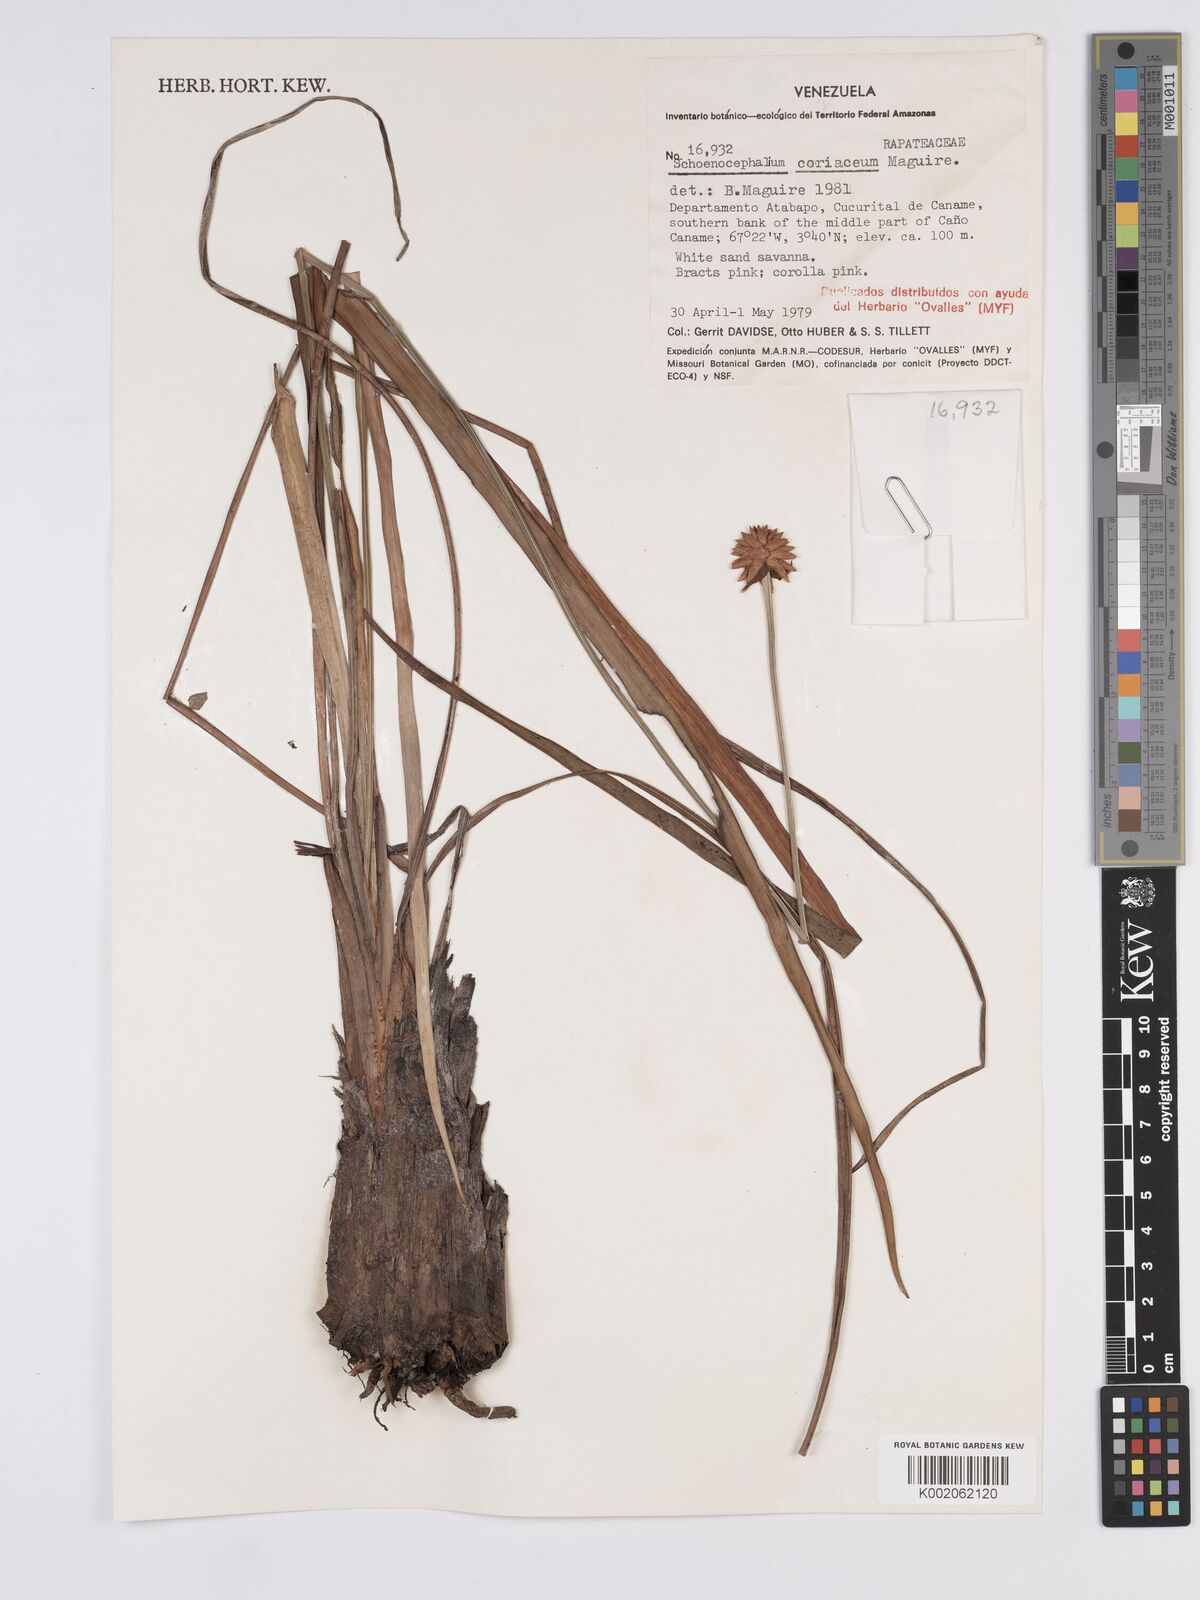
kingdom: Plantae
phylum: Tracheophyta
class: Liliopsida
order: Poales
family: Rapateaceae
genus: Schoenocephalium
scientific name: Schoenocephalium cucullatum
